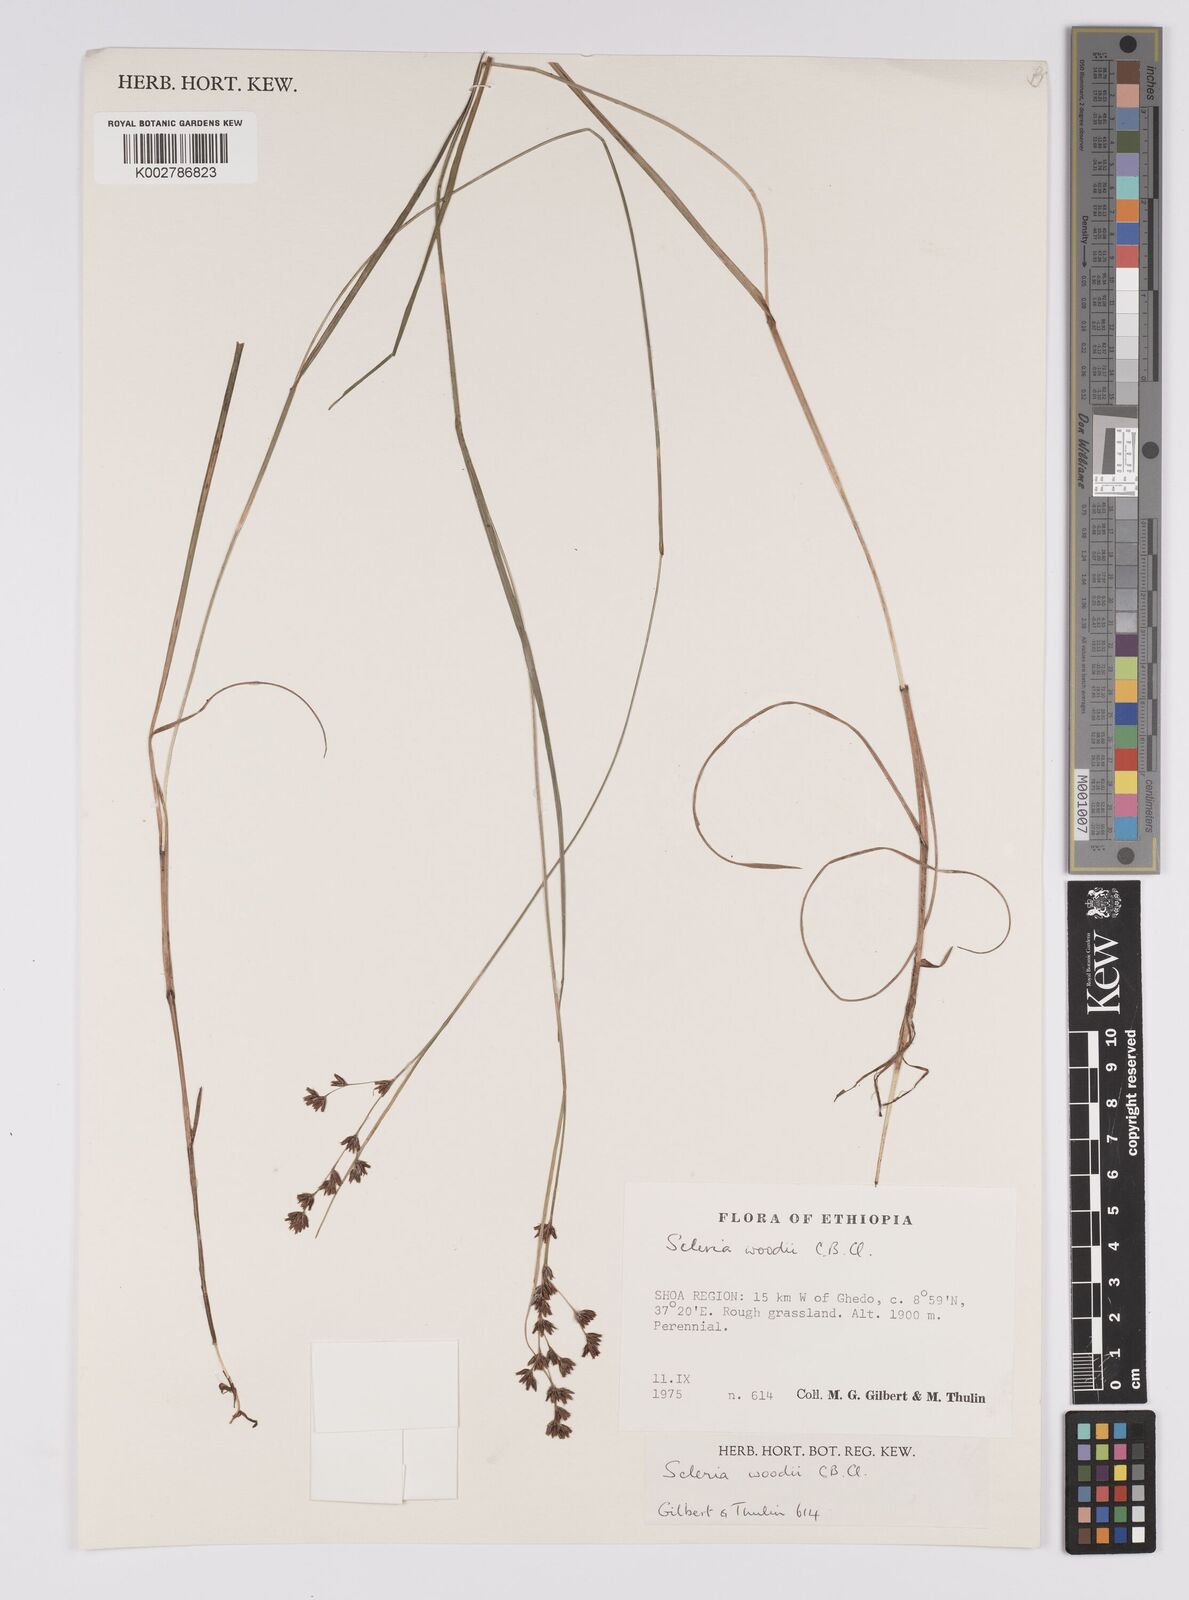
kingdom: Plantae
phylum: Tracheophyta
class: Liliopsida
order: Poales
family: Cyperaceae
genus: Scleria
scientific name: Scleria woodii
